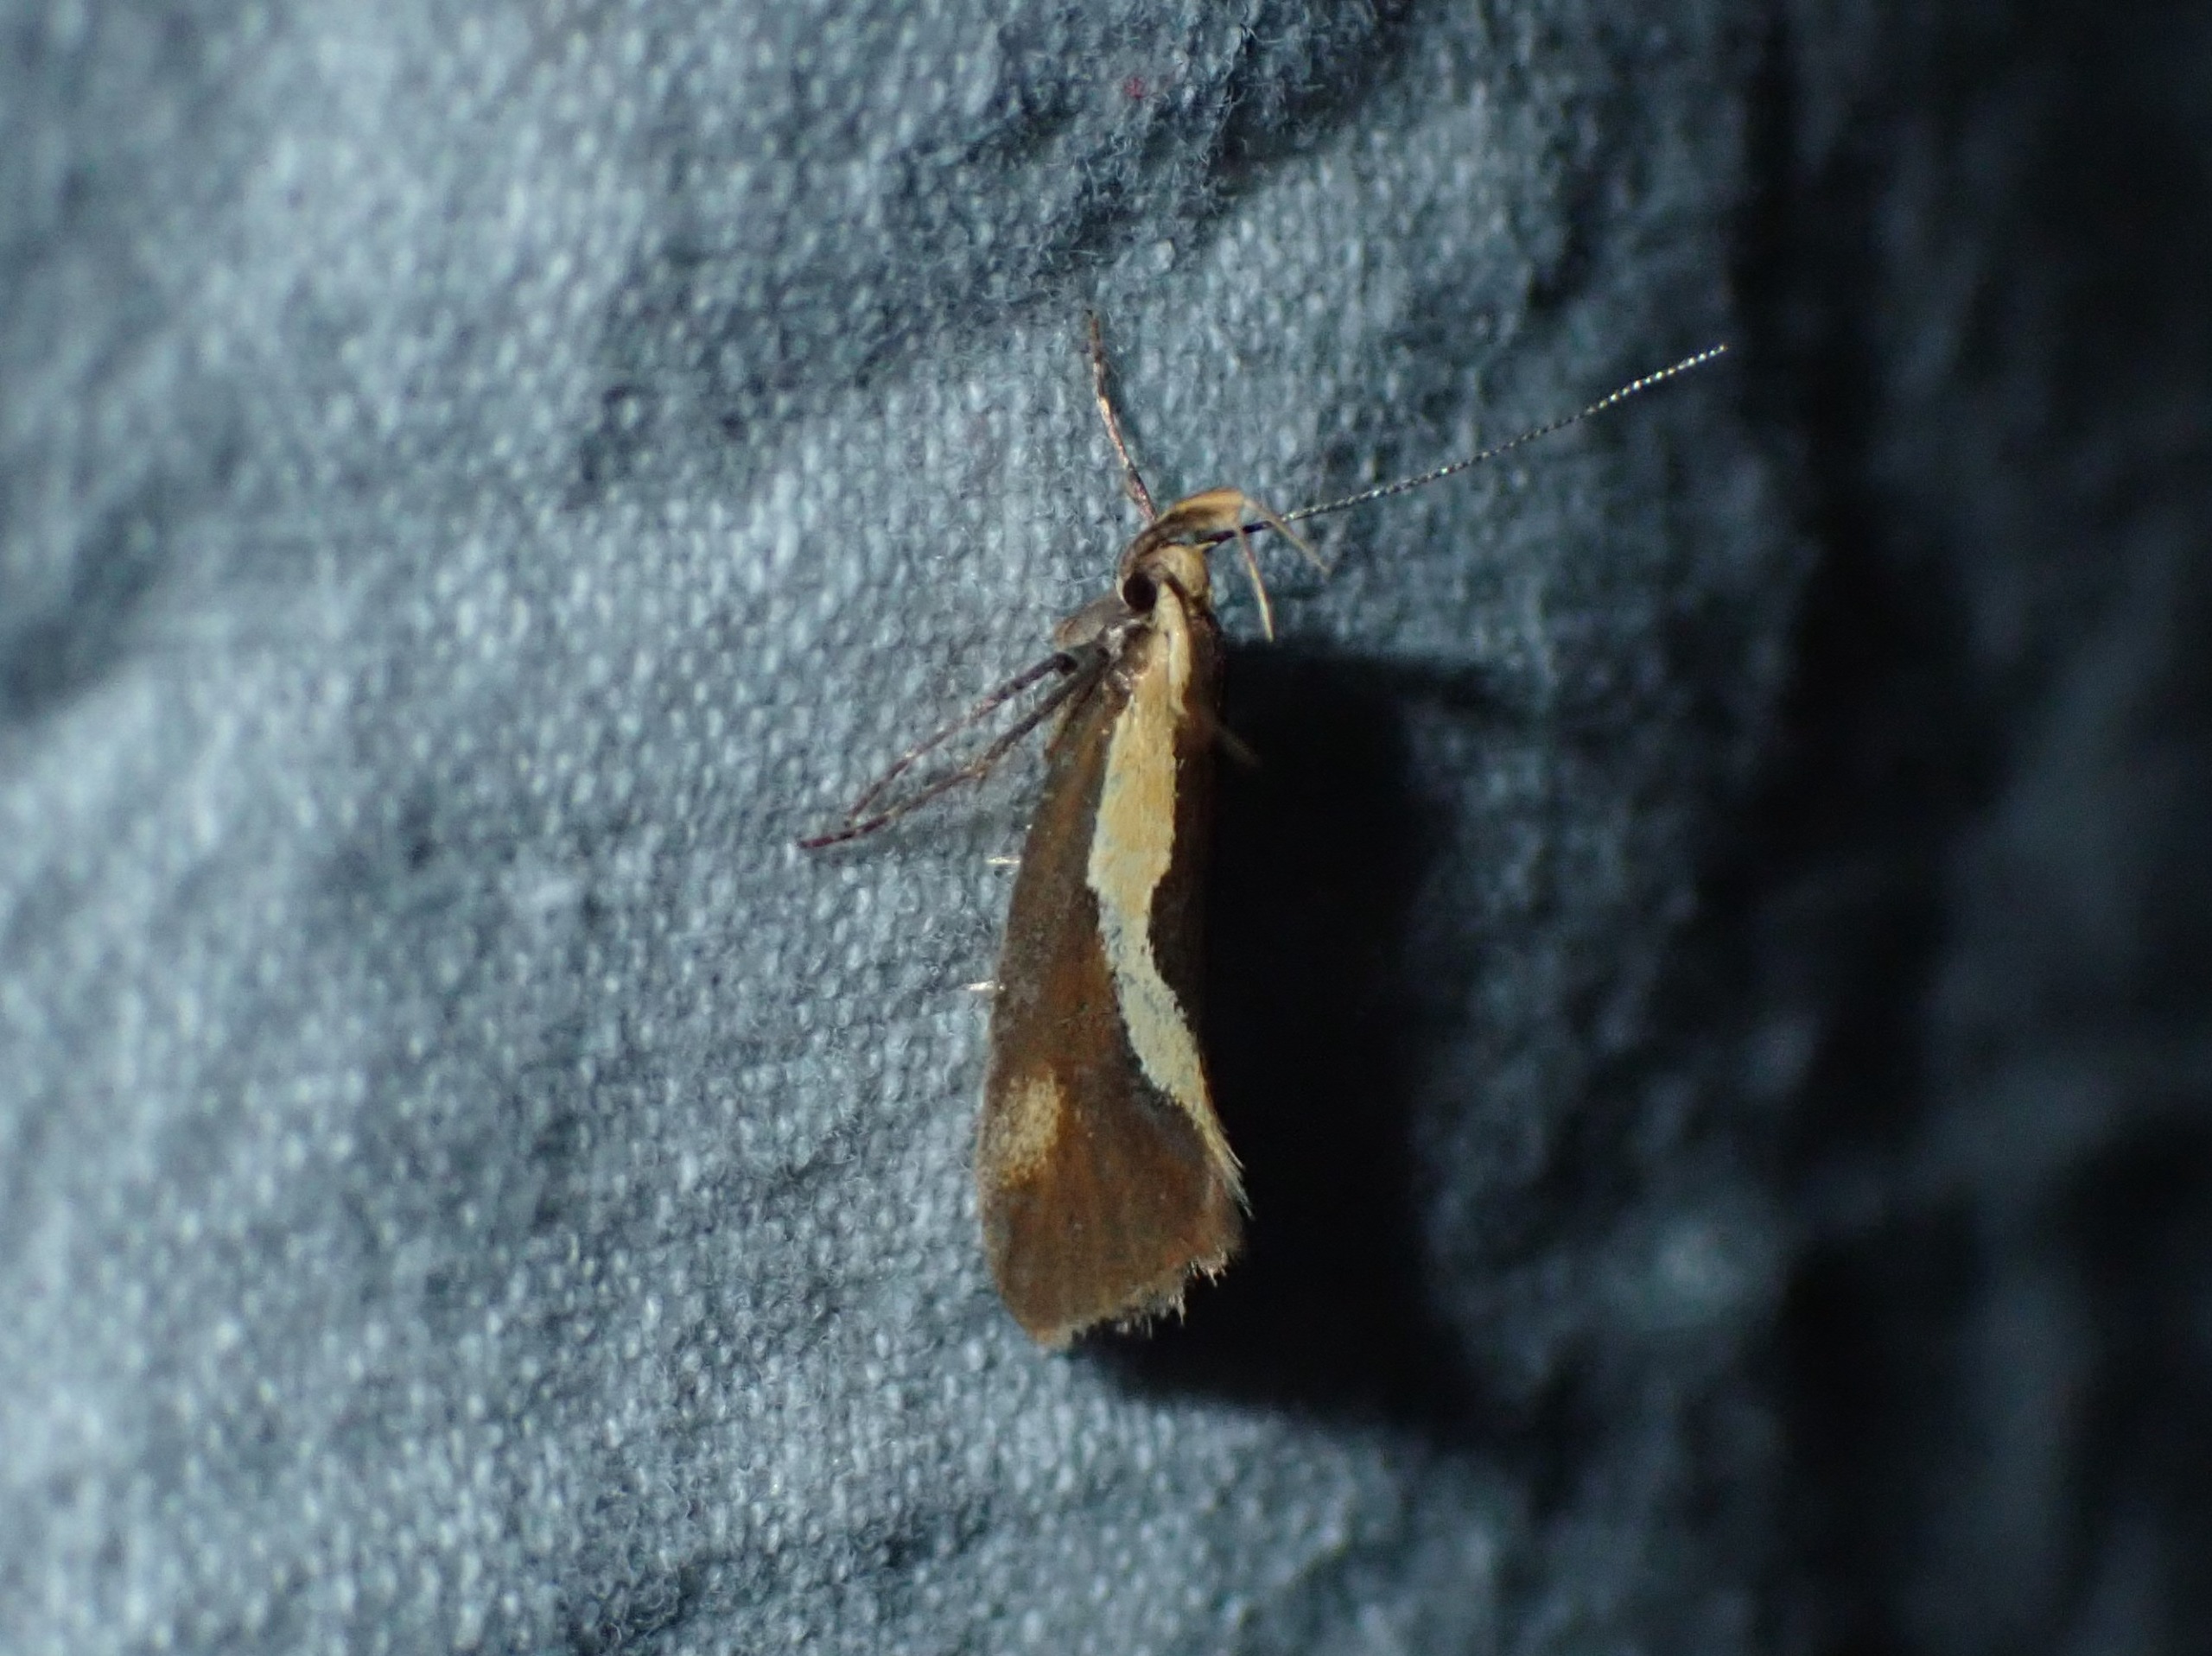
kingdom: Animalia
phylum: Arthropoda
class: Insecta
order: Lepidoptera
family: Oecophoridae
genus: Harpella
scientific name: Harpella forficella
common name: Kæmpeprydvinge
